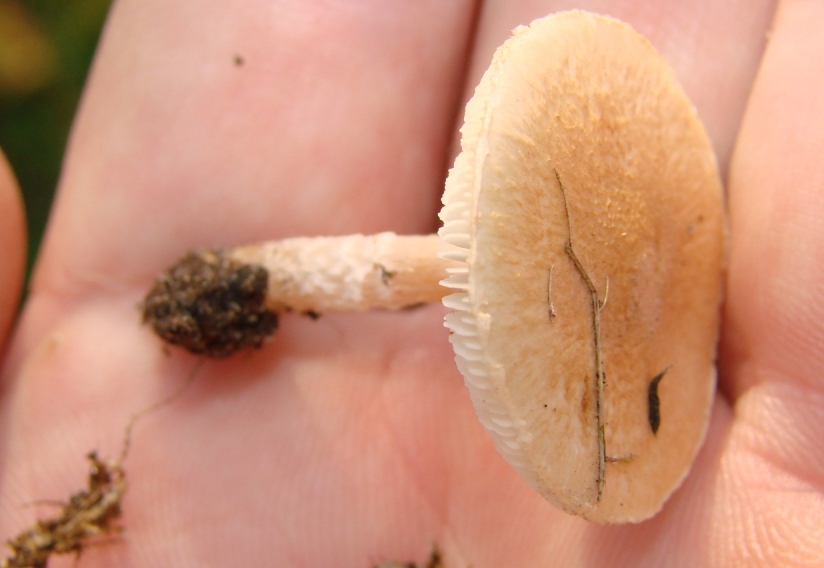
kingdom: Fungi
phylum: Basidiomycota
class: Agaricomycetes
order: Agaricales
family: Agaricaceae
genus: Lepiota
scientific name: Lepiota subincarnata
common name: kødfarvet parasolhat
